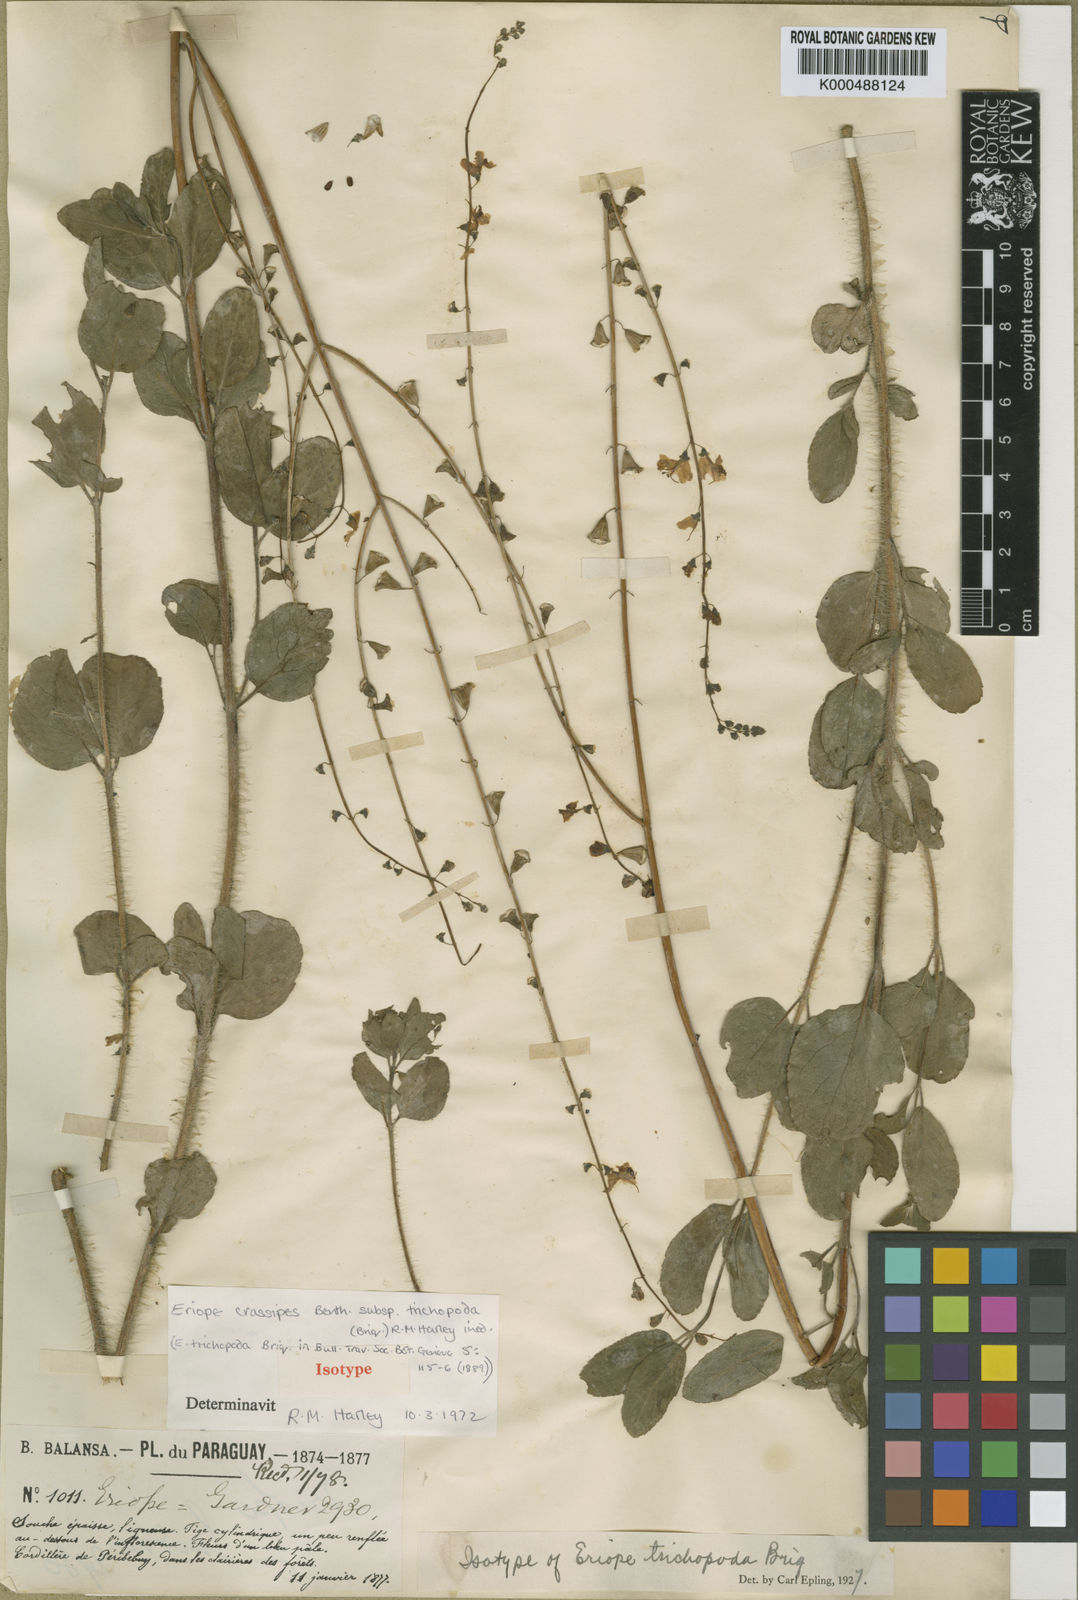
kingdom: Plantae
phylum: Tracheophyta
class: Magnoliopsida
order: Lamiales
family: Lamiaceae
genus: Eriope
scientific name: Eriope crassipes
